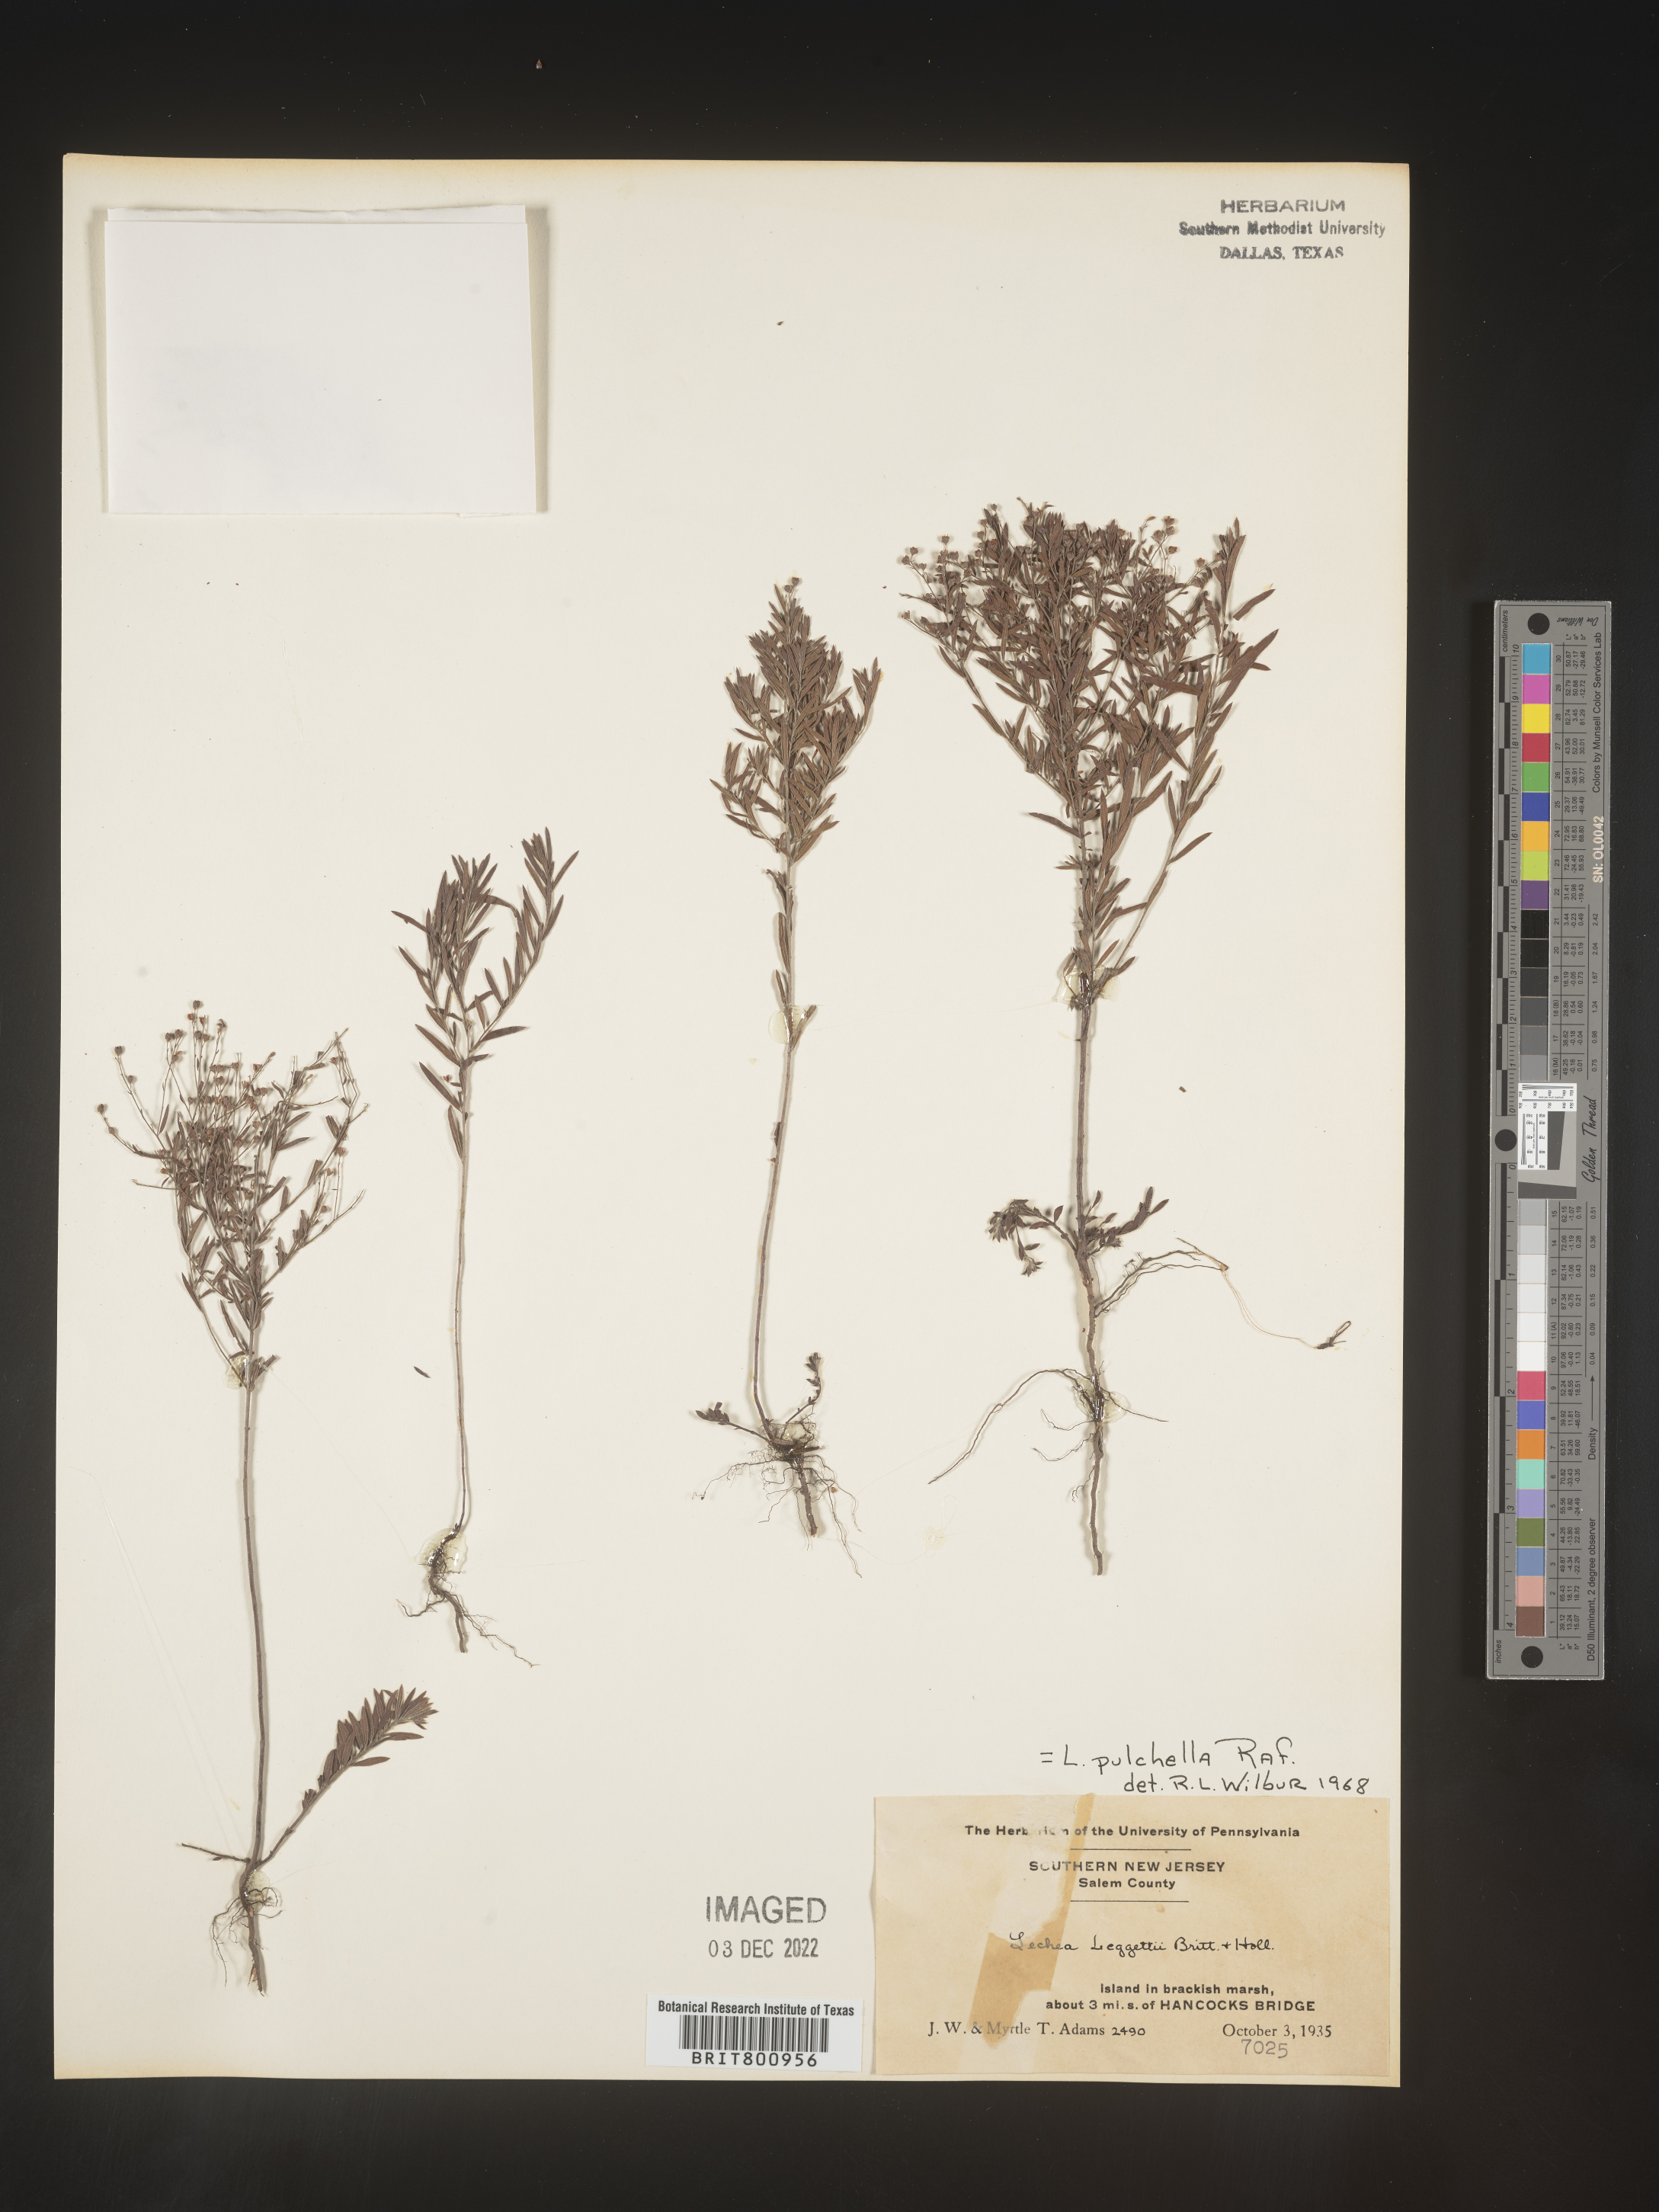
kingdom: Plantae
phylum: Tracheophyta
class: Magnoliopsida
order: Malvales
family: Cistaceae
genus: Lechea
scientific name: Lechea pulchella
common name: Leggett's pinweed
